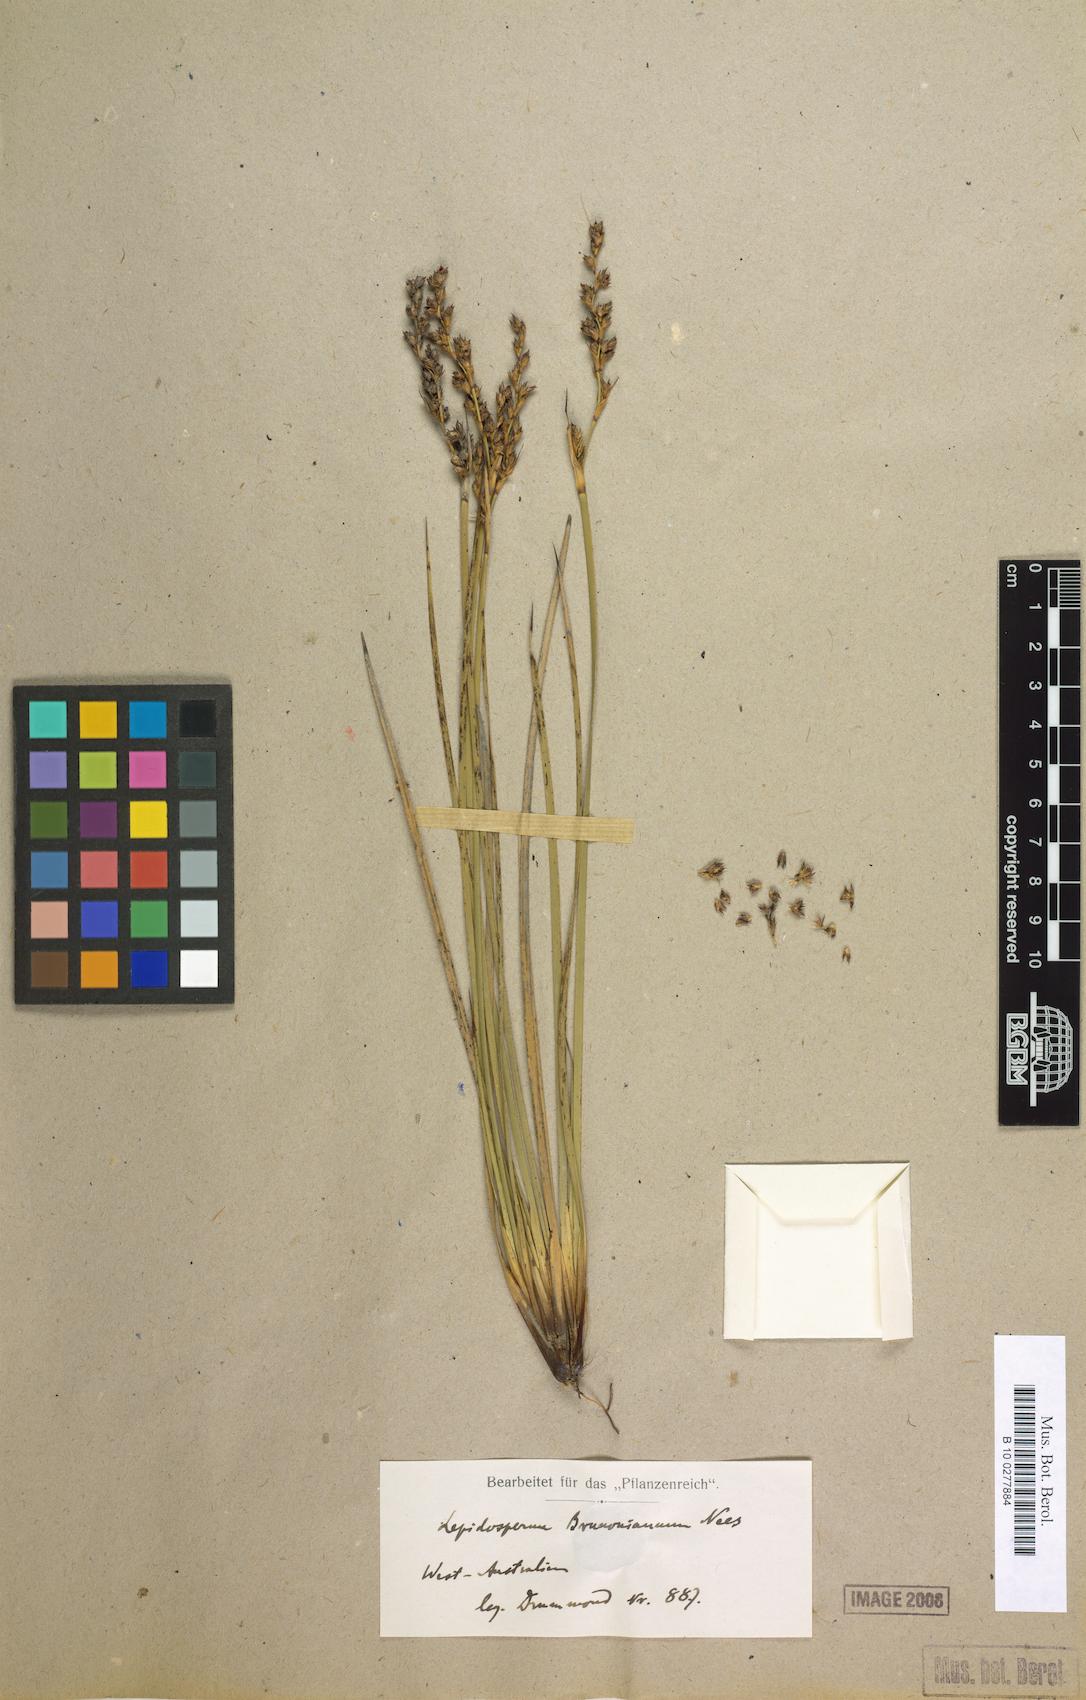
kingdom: Plantae
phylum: Tracheophyta
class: Liliopsida
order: Poales
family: Cyperaceae
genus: Lepidosperma
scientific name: Lepidosperma sieberi
